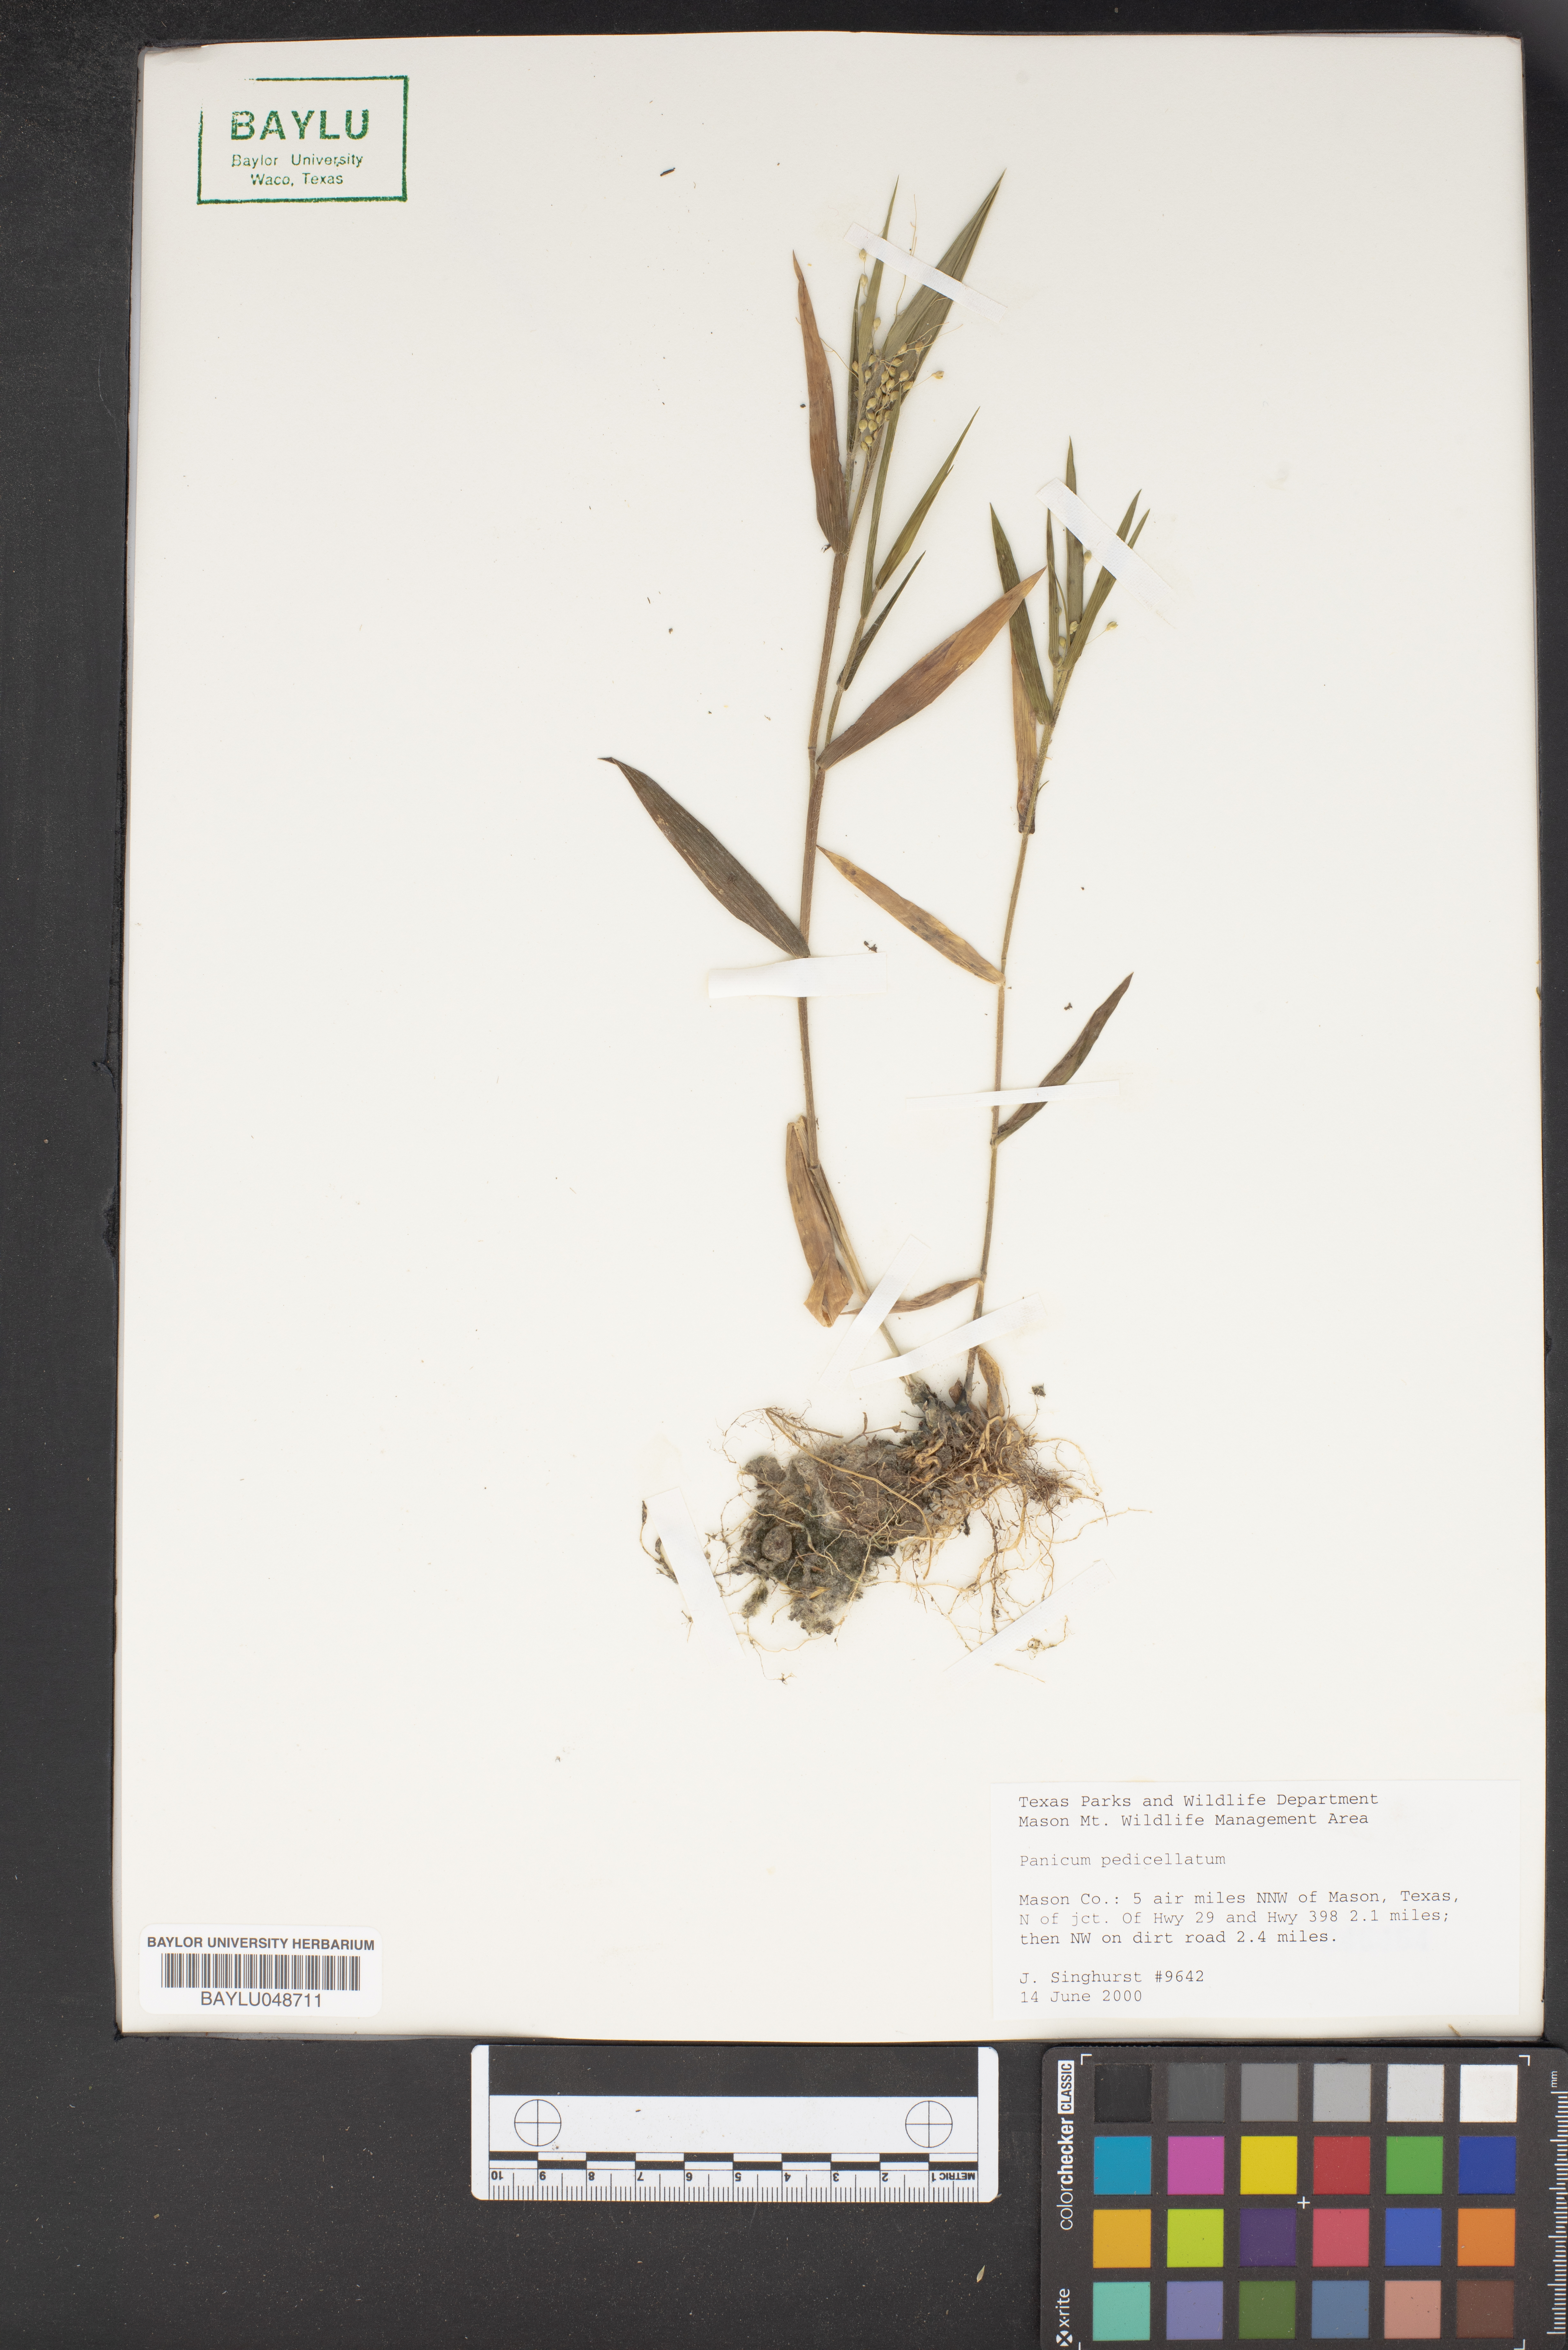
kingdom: Plantae
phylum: Tracheophyta
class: Liliopsida
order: Poales
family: Poaceae
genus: Dichanthelium
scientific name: Dichanthelium transiens
